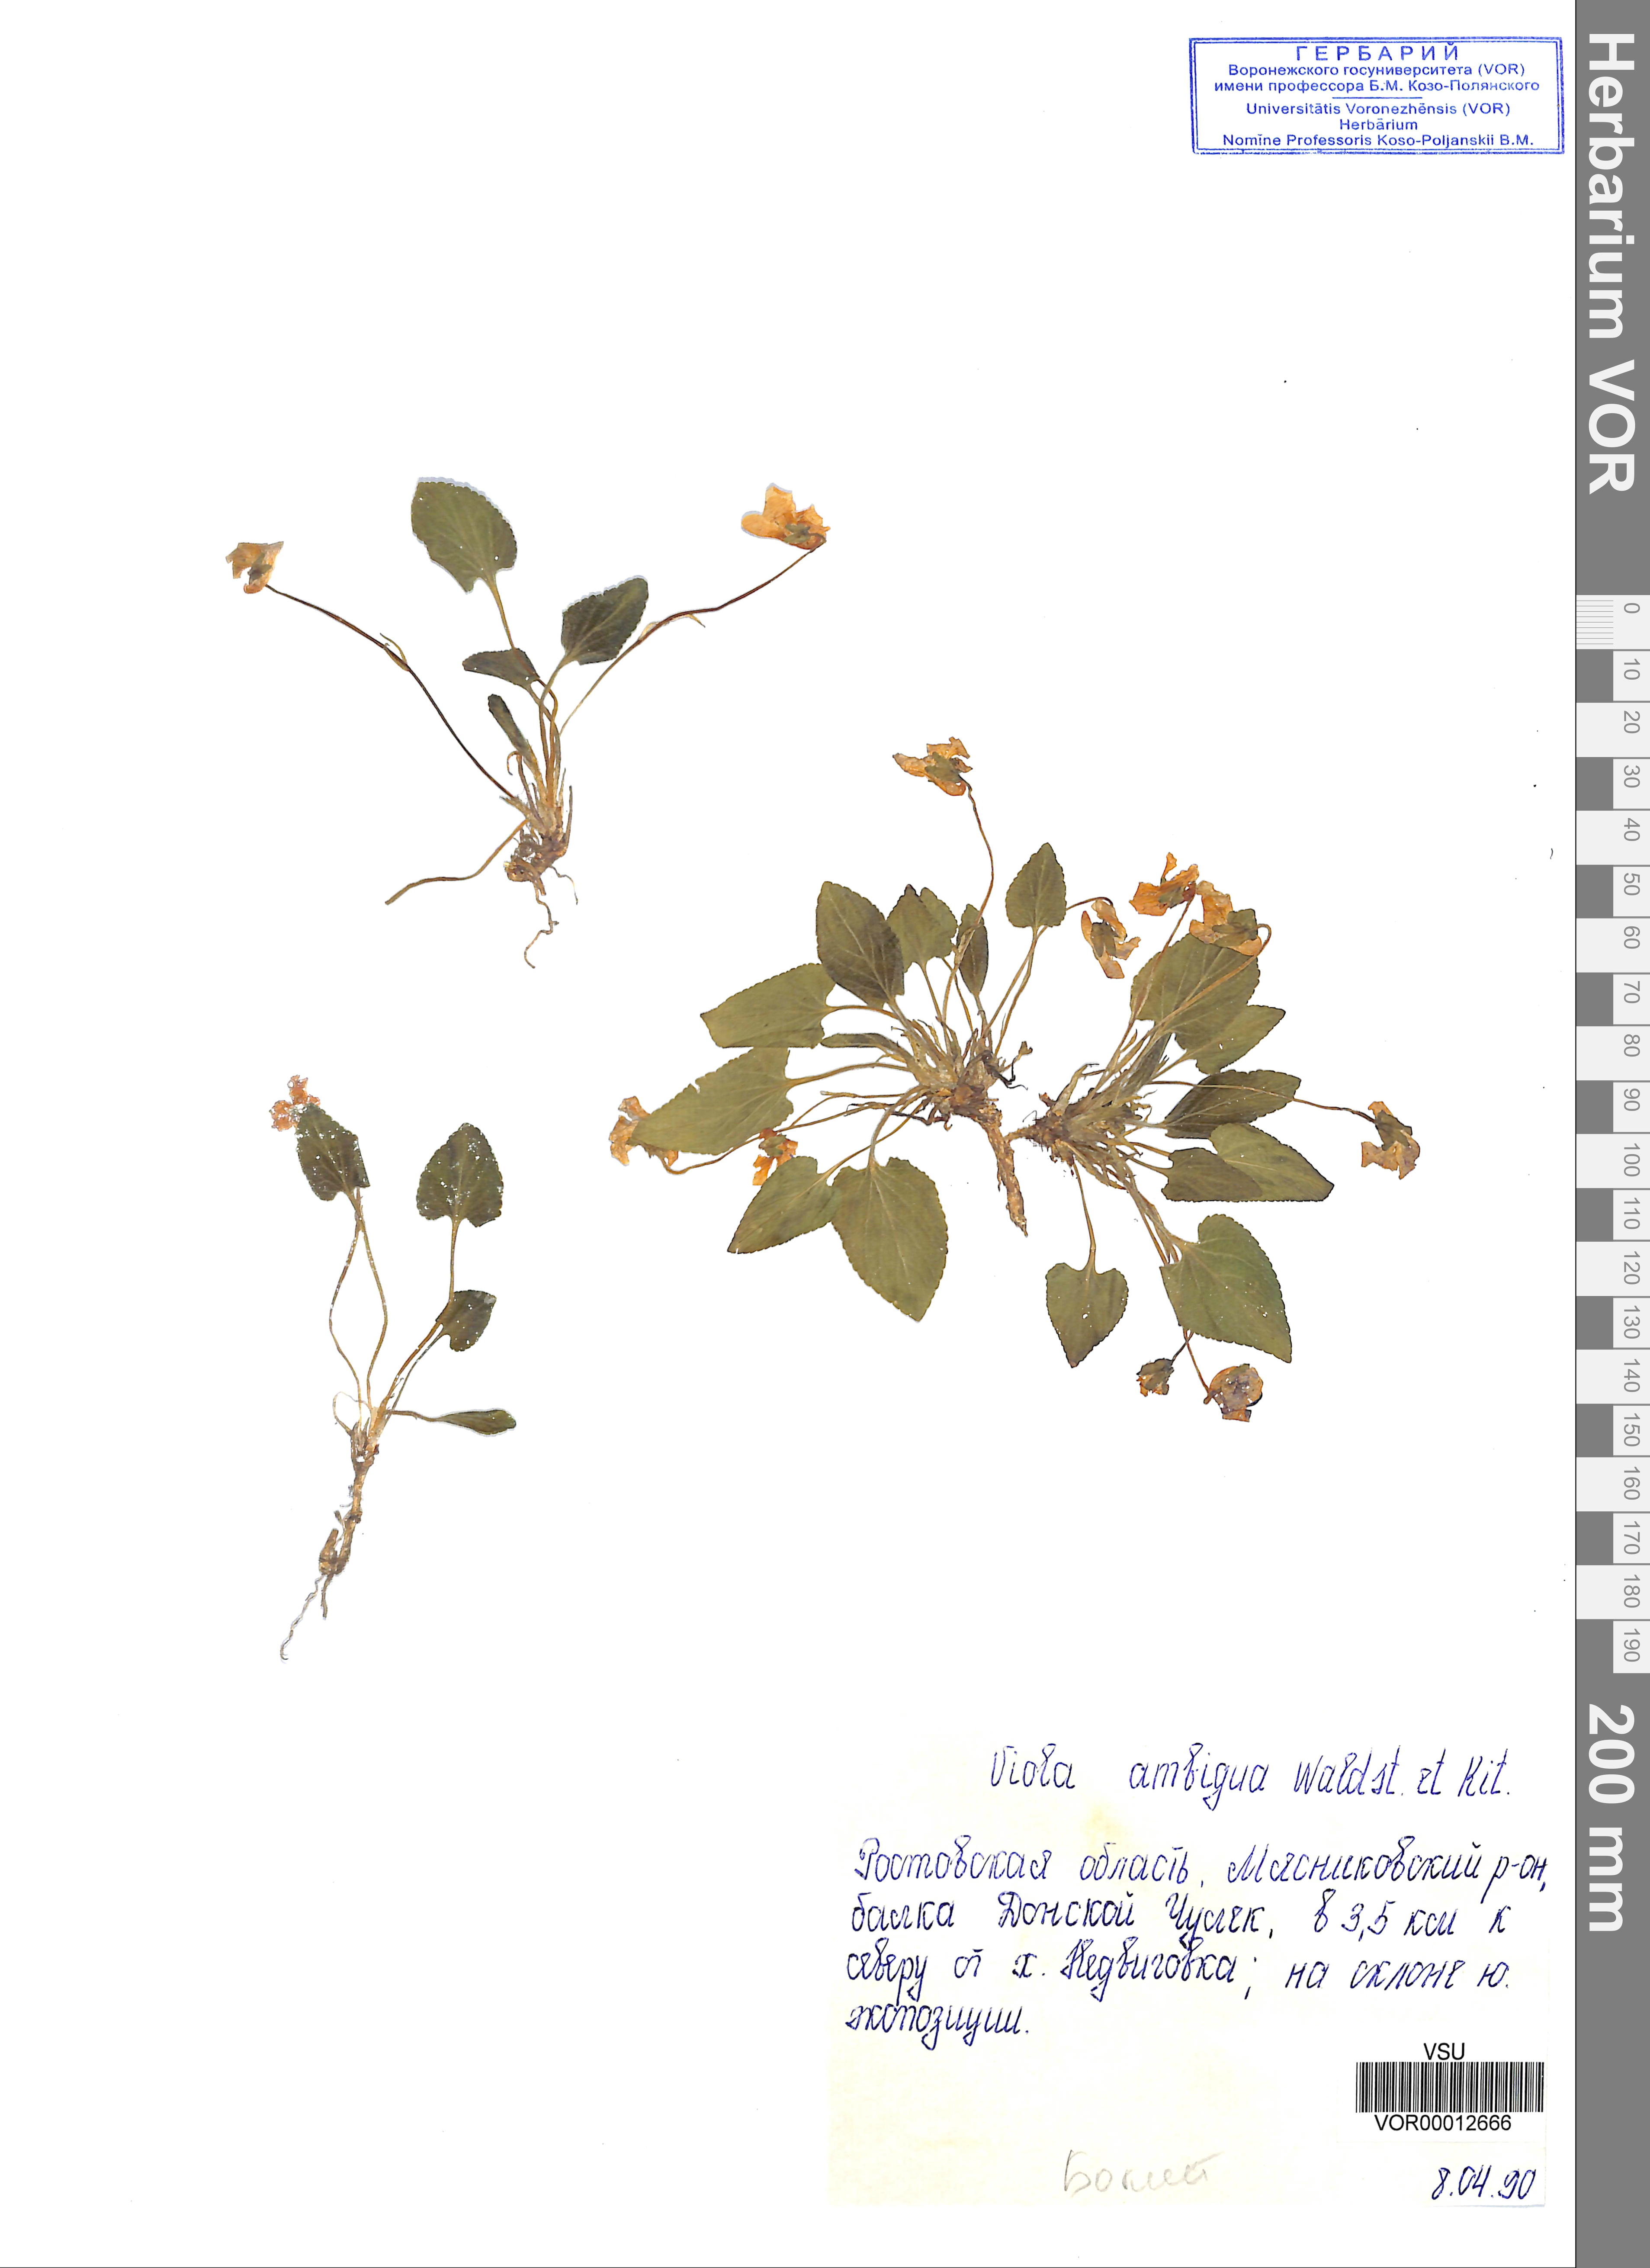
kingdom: Plantae
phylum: Tracheophyta
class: Magnoliopsida
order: Malpighiales
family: Violaceae
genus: Viola
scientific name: Viola ambigua
